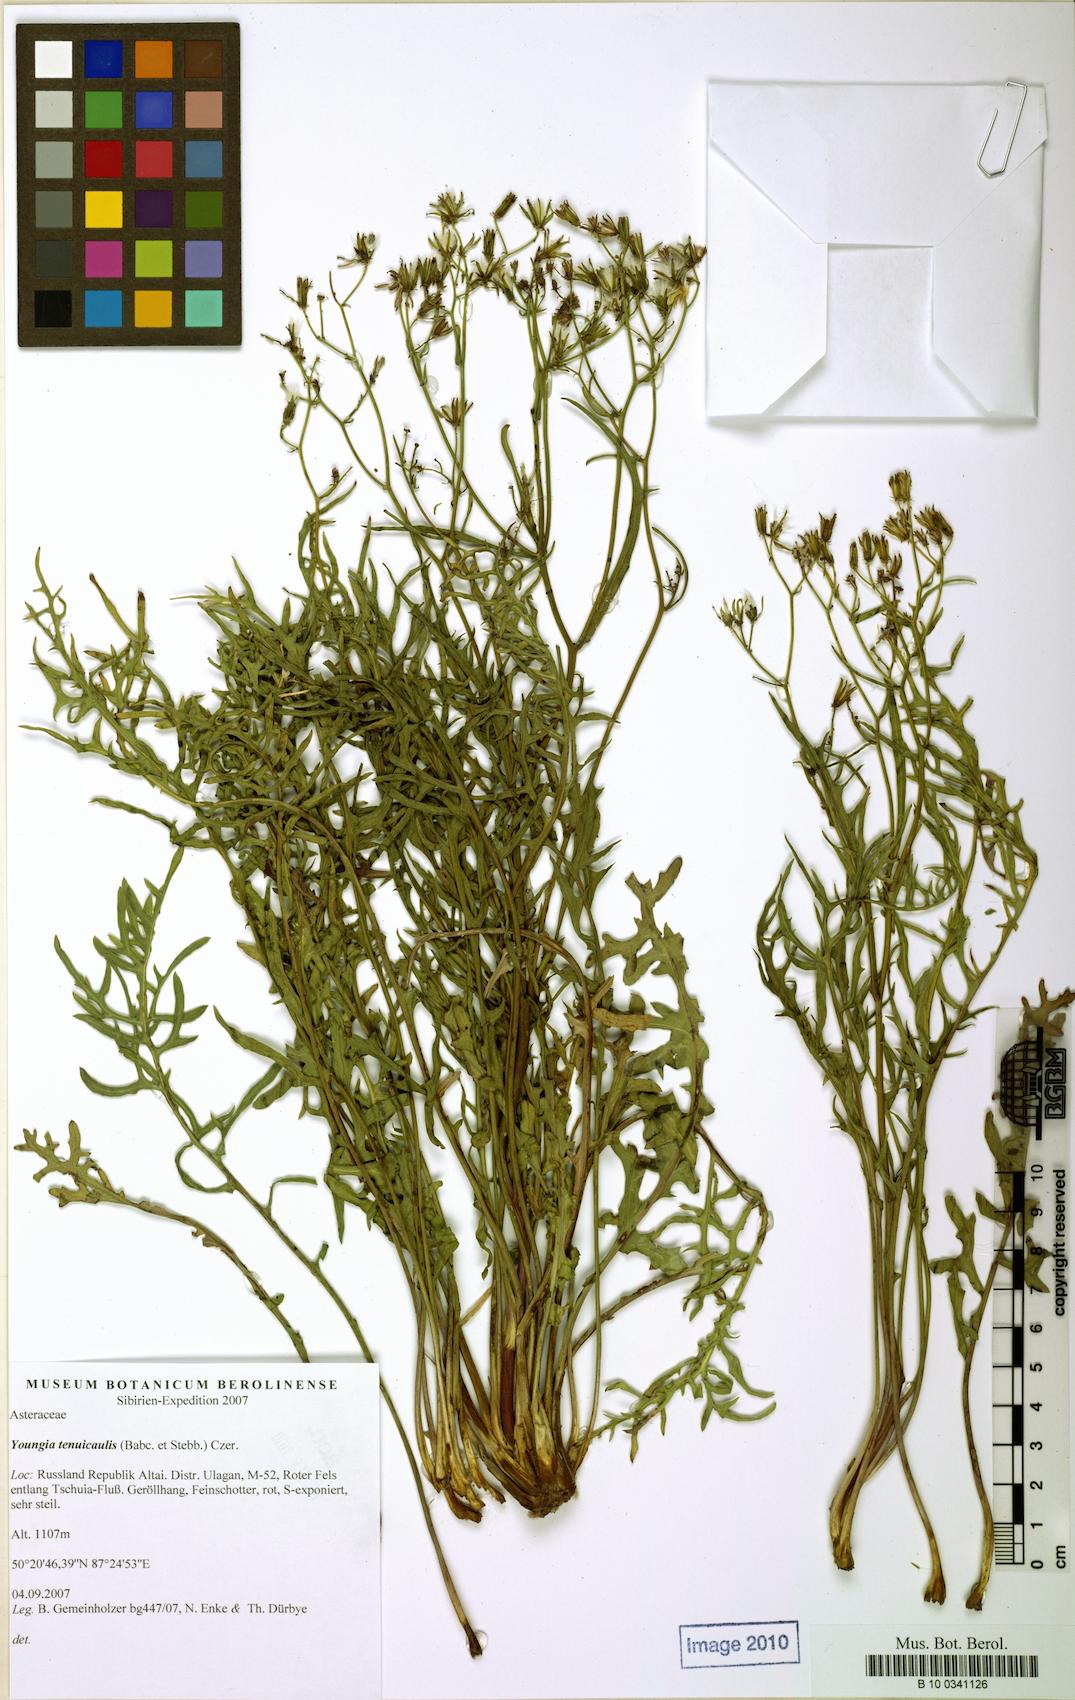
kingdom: Plantae
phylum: Tracheophyta
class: Magnoliopsida
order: Asterales
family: Asteraceae
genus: Crepidiastrum
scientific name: Crepidiastrum tenuifolium
